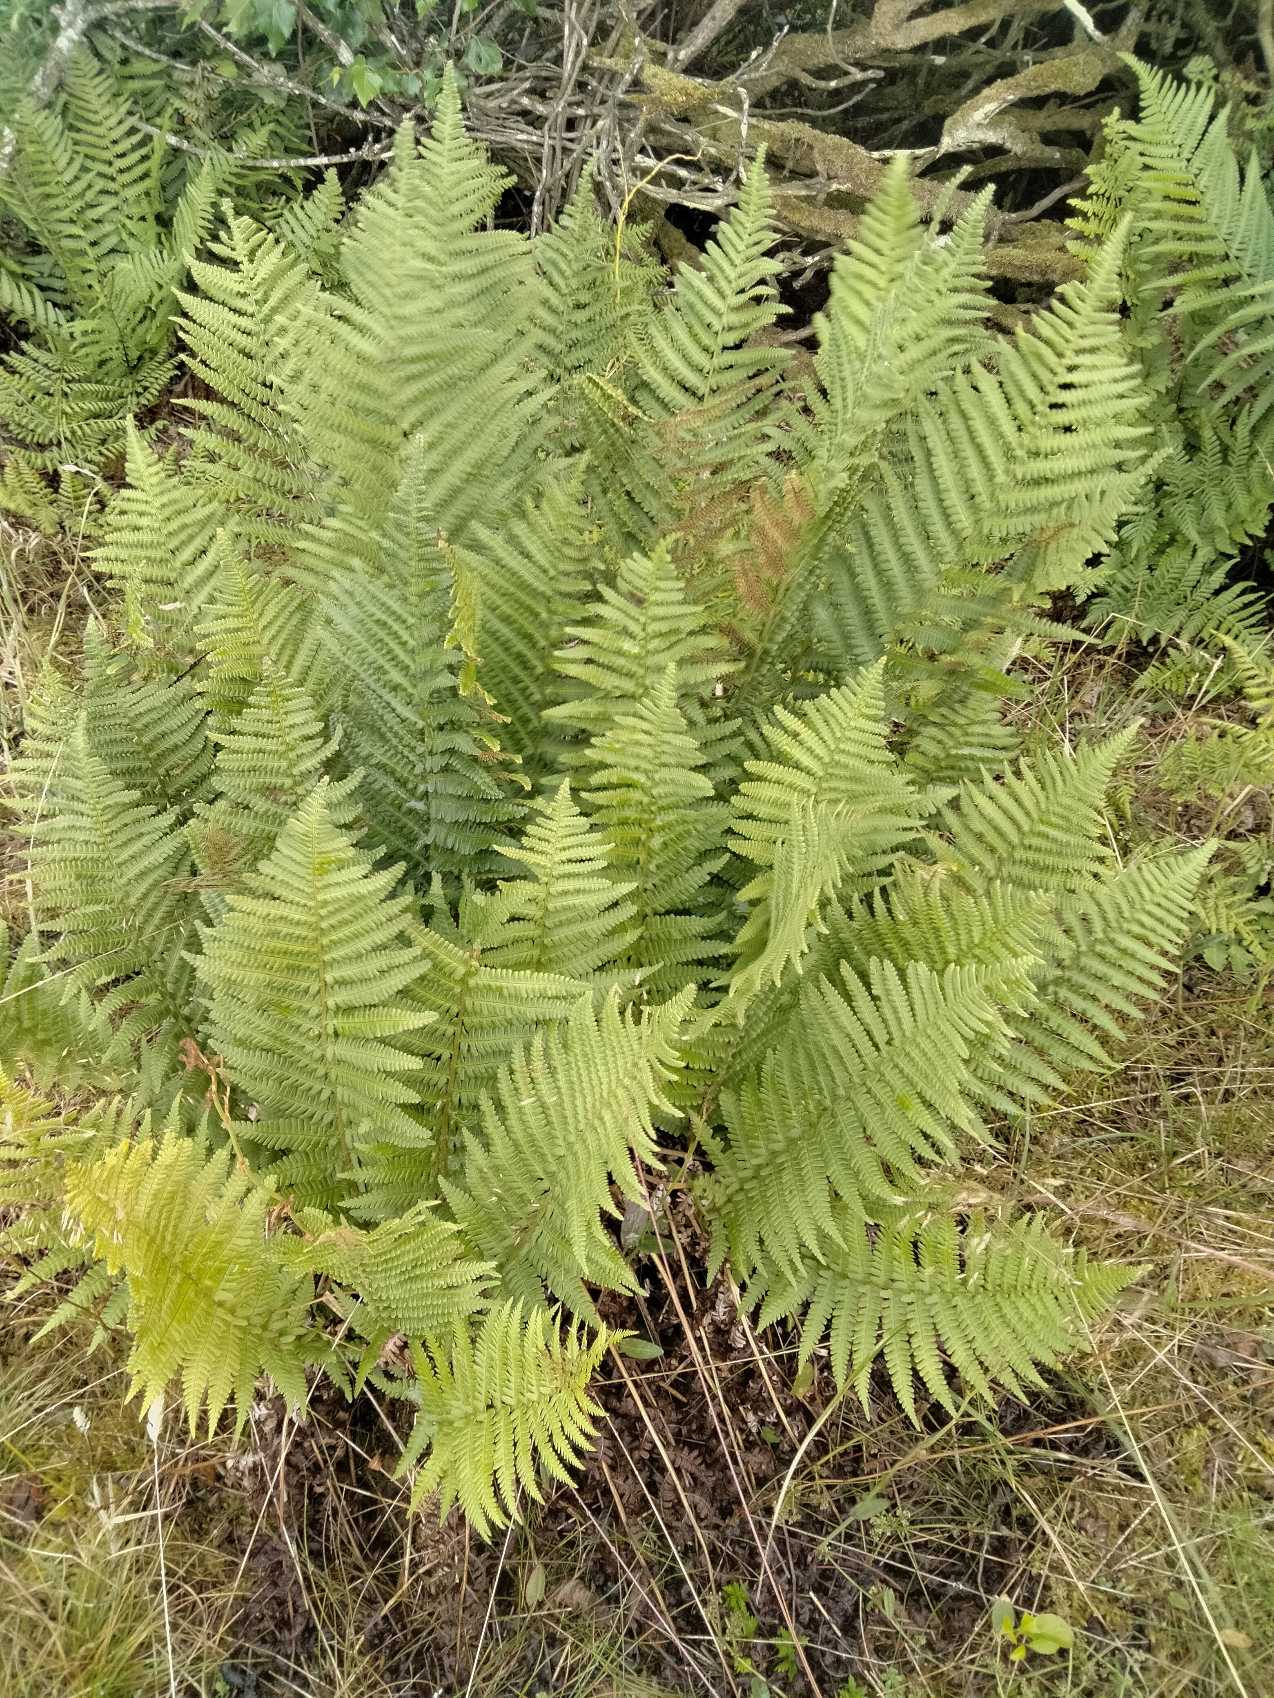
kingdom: Plantae
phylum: Tracheophyta
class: Polypodiopsida
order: Polypodiales
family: Dryopteridaceae
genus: Dryopteris
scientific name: Dryopteris filix-mas
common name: Almindelig mangeløv
